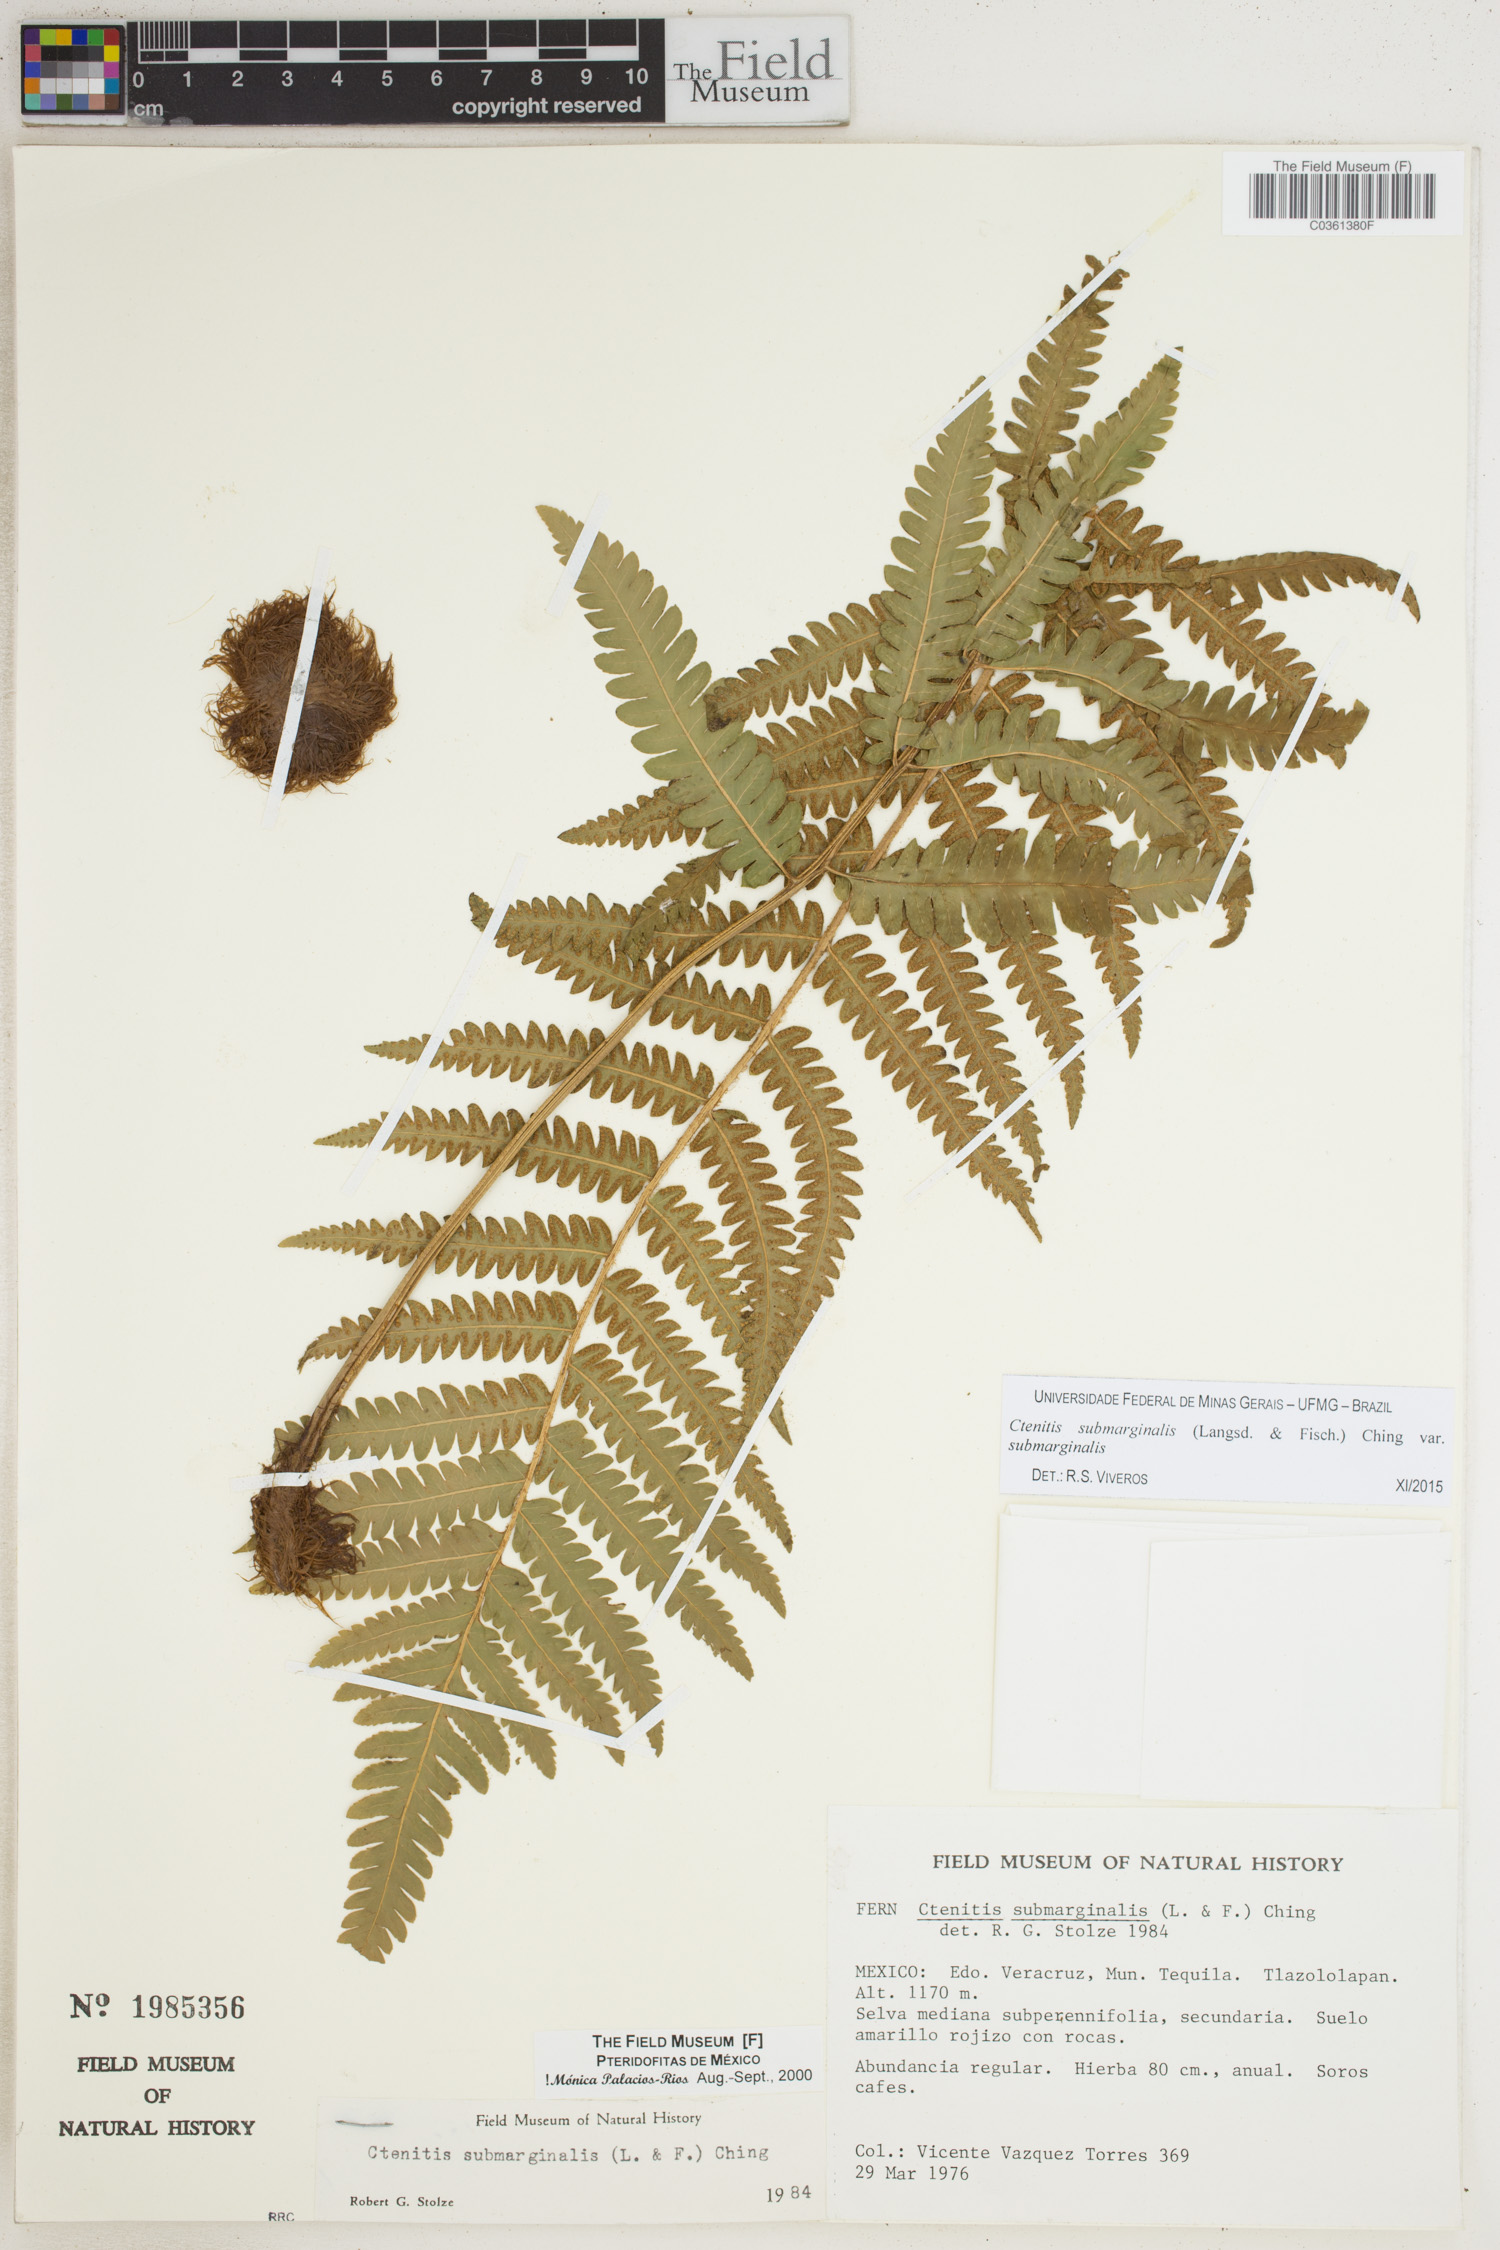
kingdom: Plantae
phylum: Tracheophyta
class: Polypodiopsida
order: Polypodiales
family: Dryopteridaceae
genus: Ctenitis
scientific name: Ctenitis submarginalis
